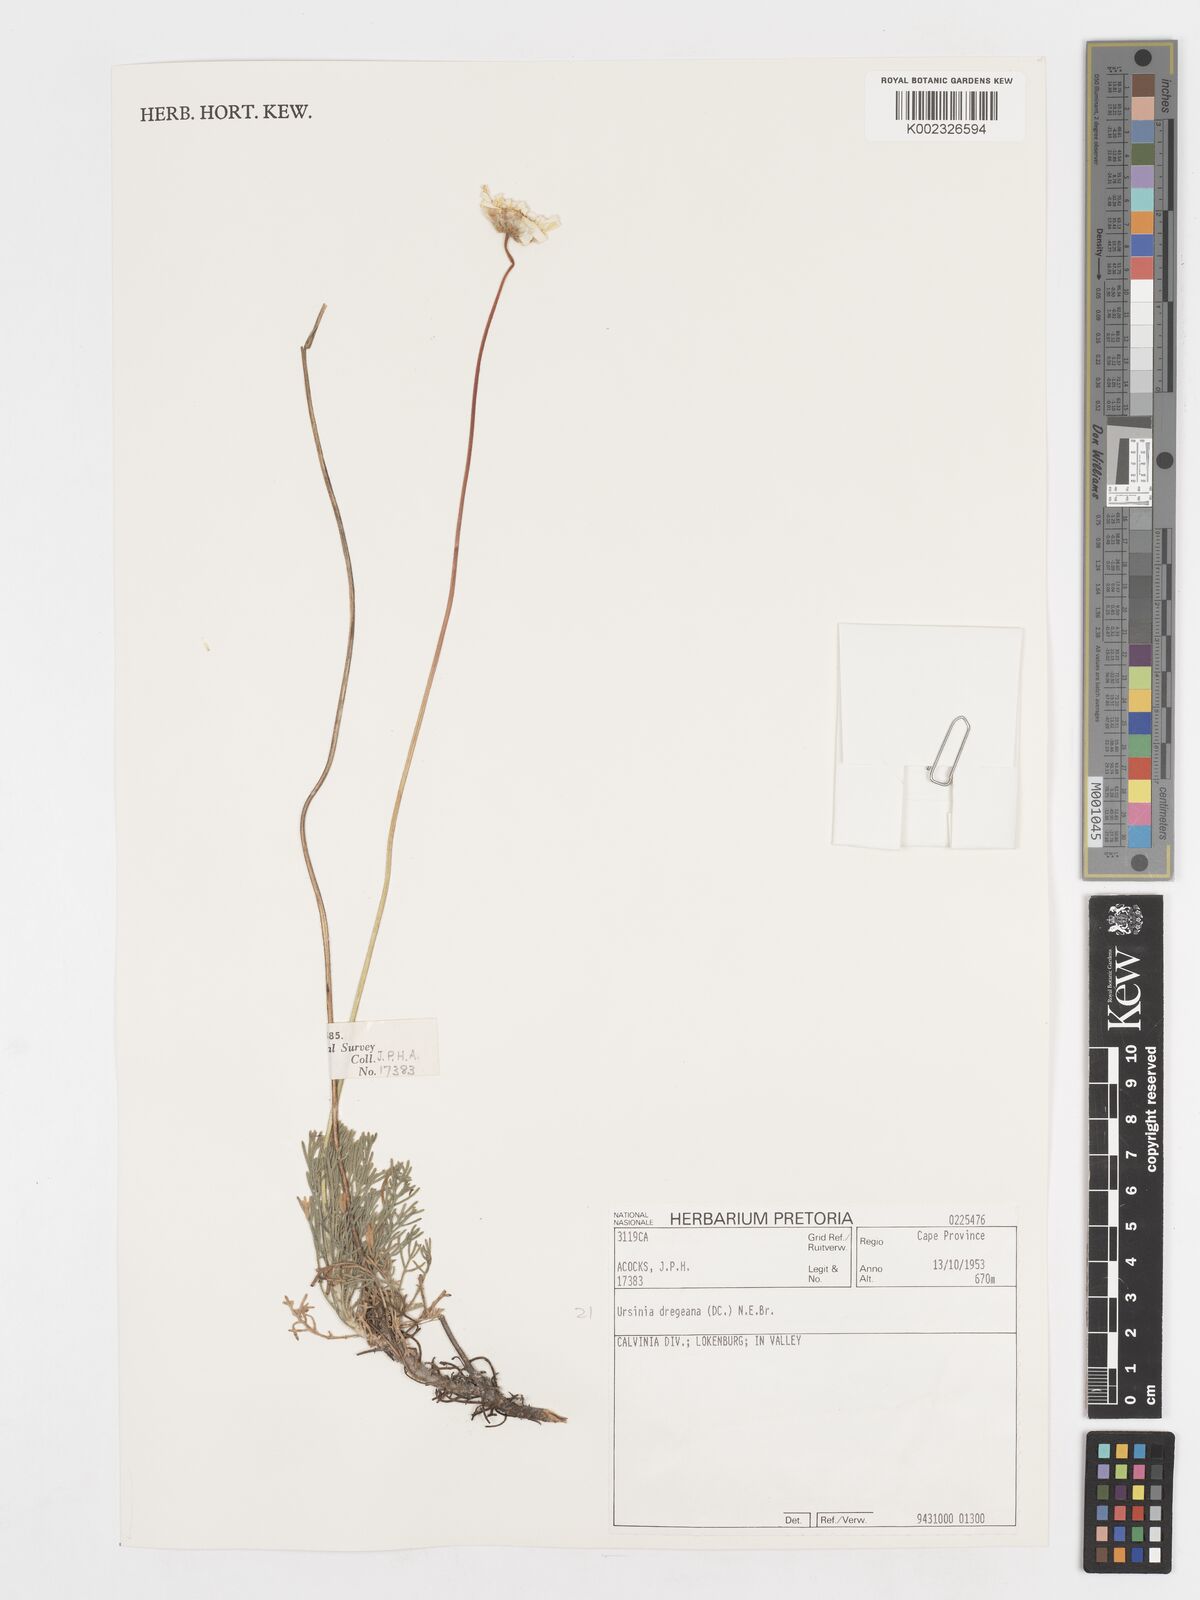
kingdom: Plantae
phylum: Tracheophyta
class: Magnoliopsida
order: Asterales
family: Asteraceae
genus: Ursinia
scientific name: Ursinia dregeana
